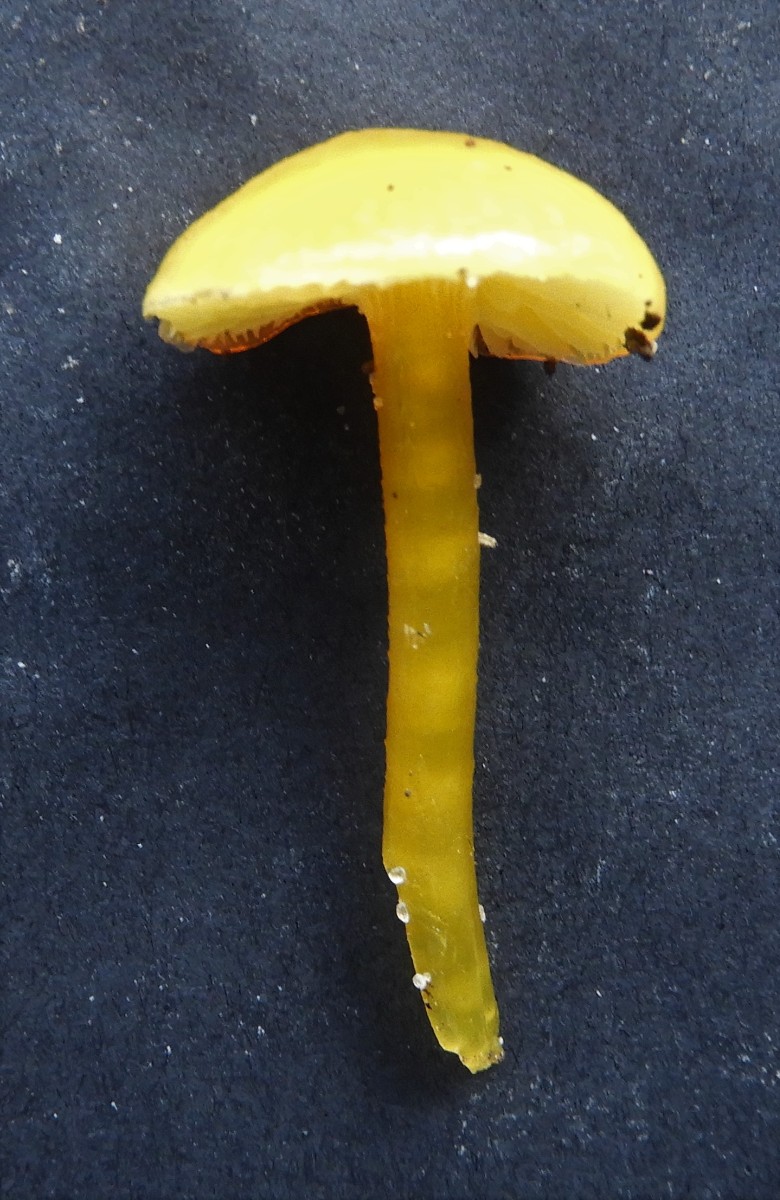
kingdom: Fungi
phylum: Basidiomycota
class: Agaricomycetes
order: Agaricales
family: Hygrophoraceae
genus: Hygrocybe
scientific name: Hygrocybe
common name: vokshat
